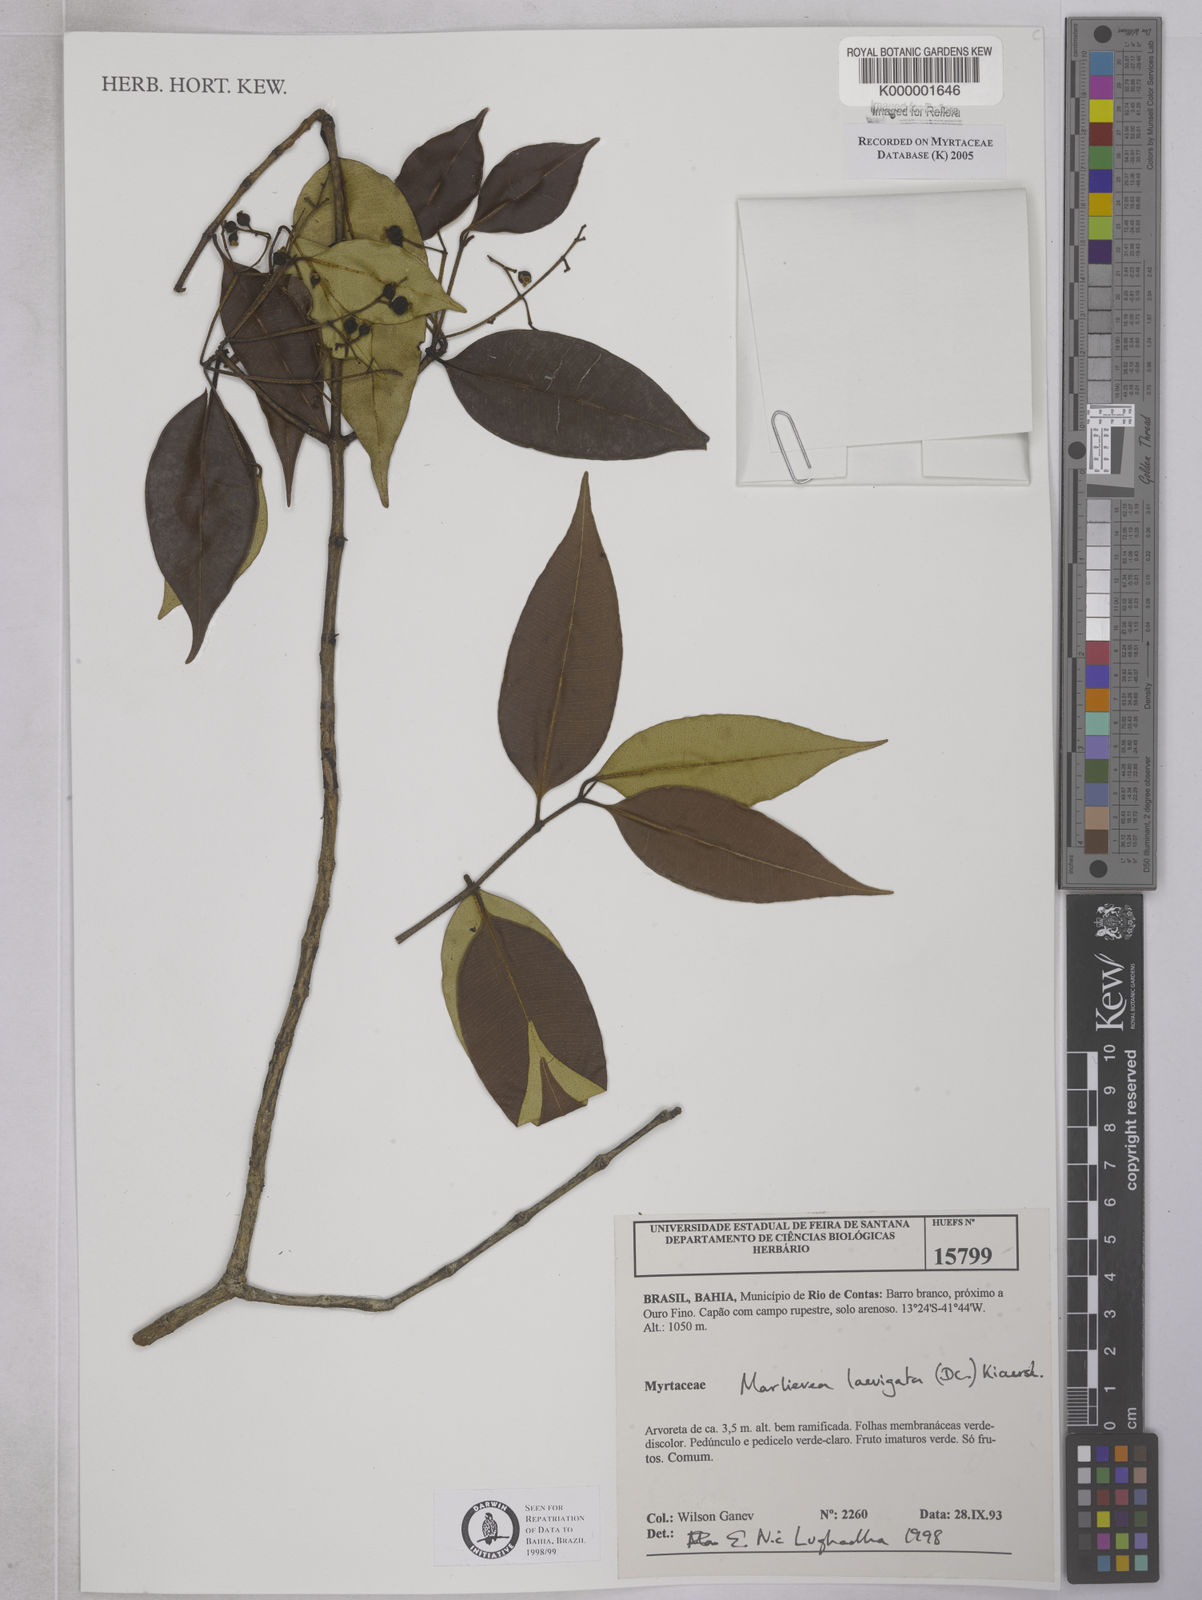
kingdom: Plantae
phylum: Tracheophyta
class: Magnoliopsida
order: Myrtales
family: Myrtaceae
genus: Myrcia
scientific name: Myrcia multipunctata
